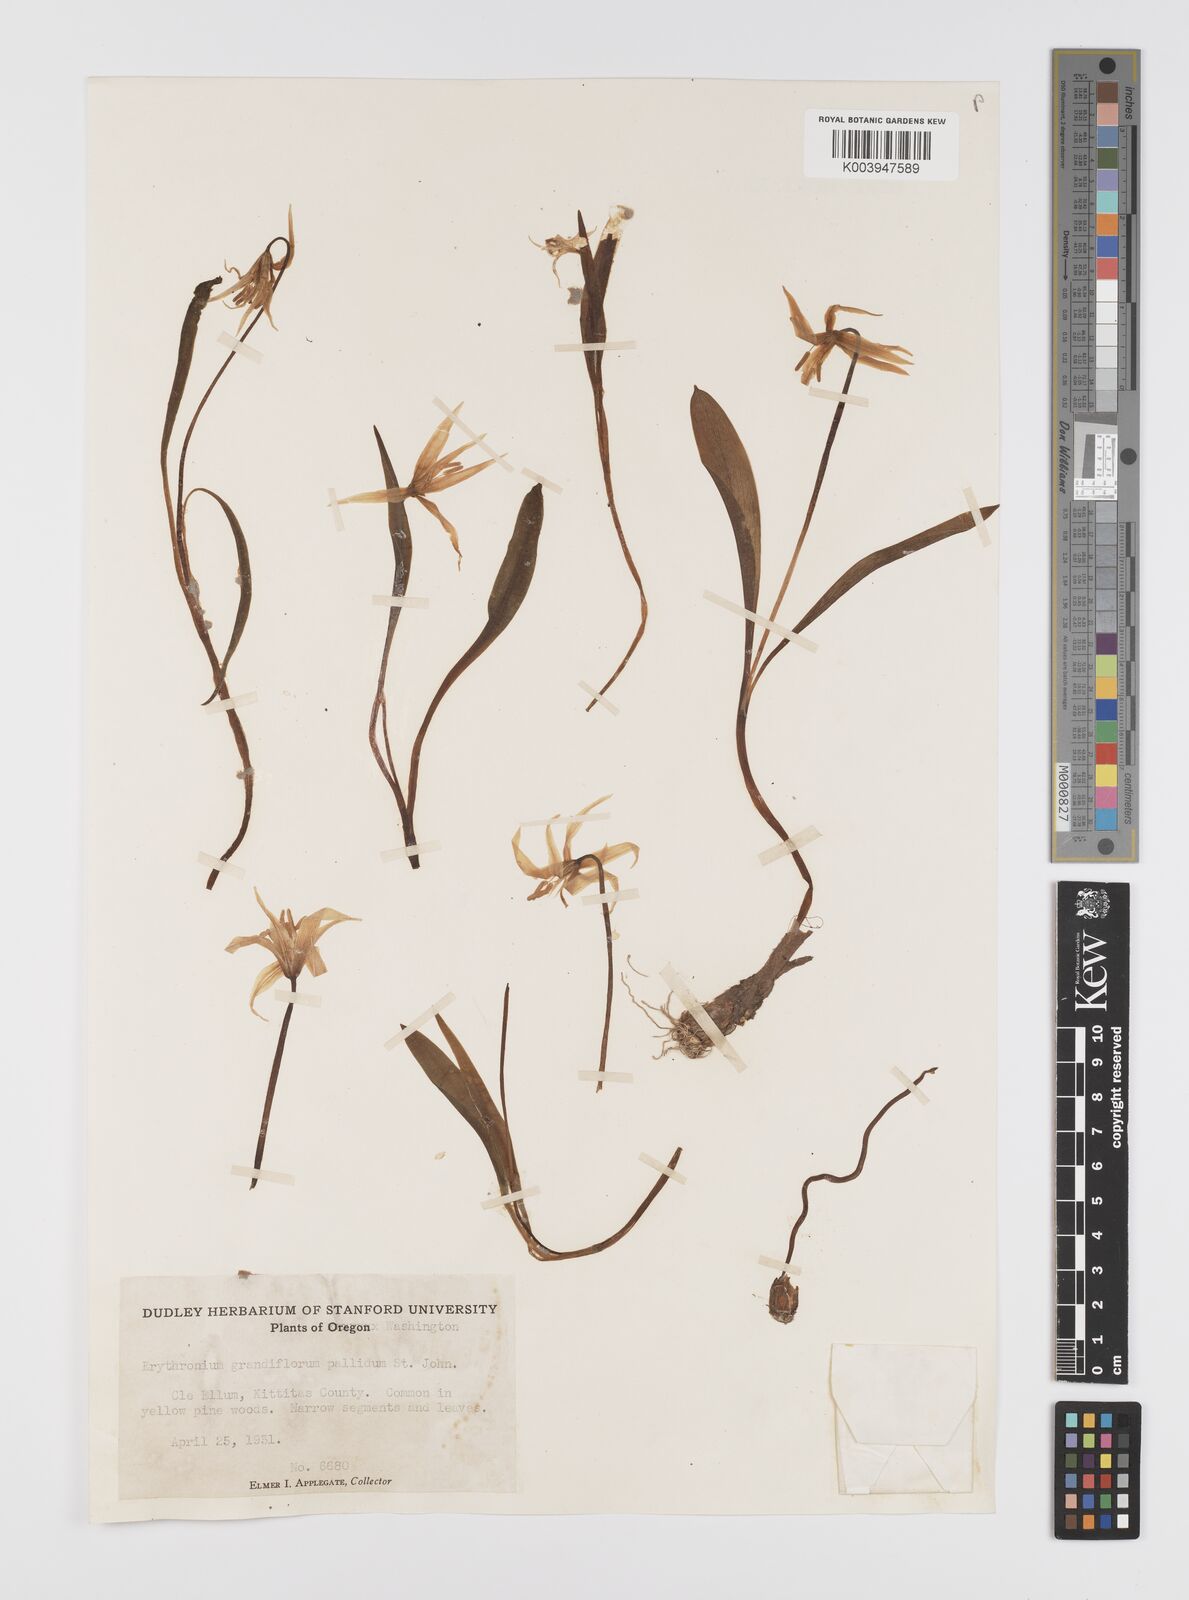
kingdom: Plantae
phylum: Tracheophyta
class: Liliopsida
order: Liliales
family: Liliaceae
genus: Erythronium
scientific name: Erythronium grandiflorum
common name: Avalanche-lily
